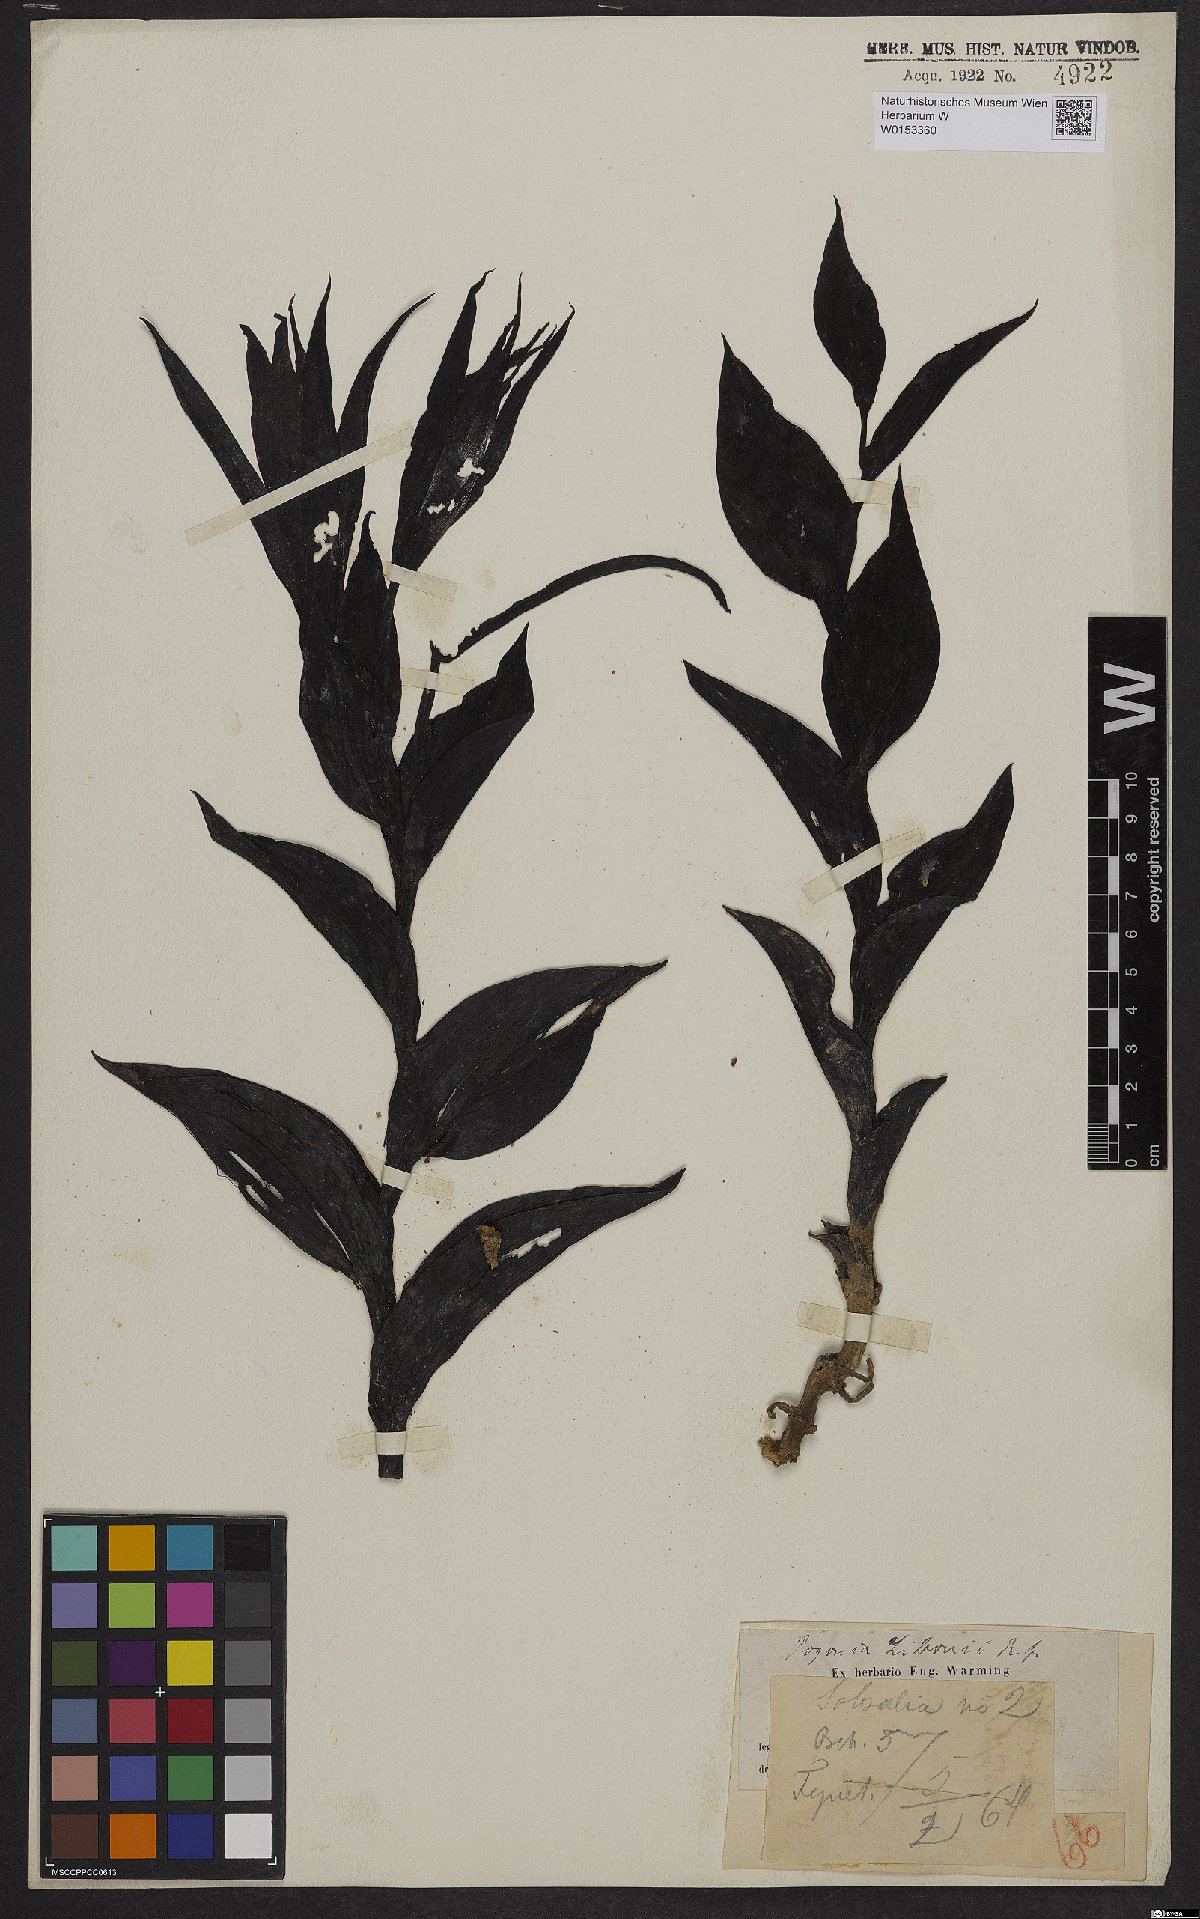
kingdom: Plantae
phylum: Tracheophyta
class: Liliopsida
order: Asparagales
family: Orchidaceae
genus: Cleistes
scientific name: Cleistes libonii
